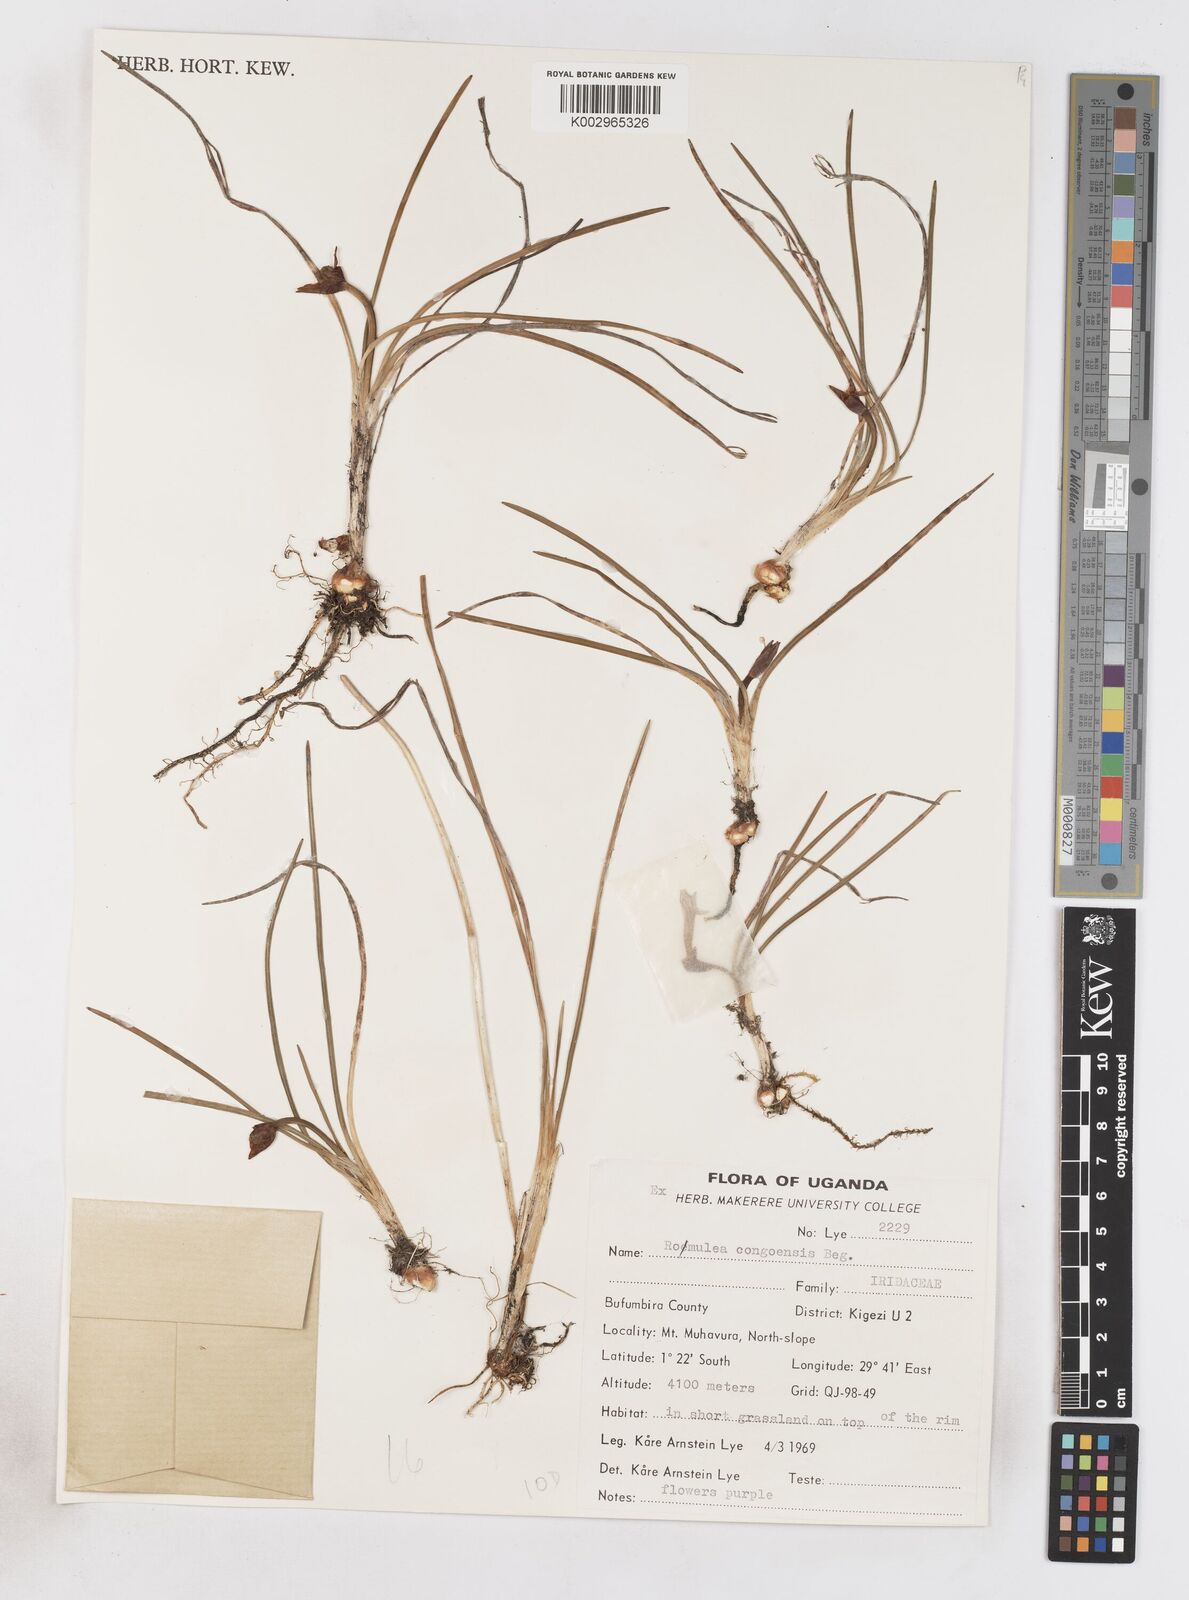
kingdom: Plantae
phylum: Tracheophyta
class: Liliopsida
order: Asparagales
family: Iridaceae
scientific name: Iridaceae
